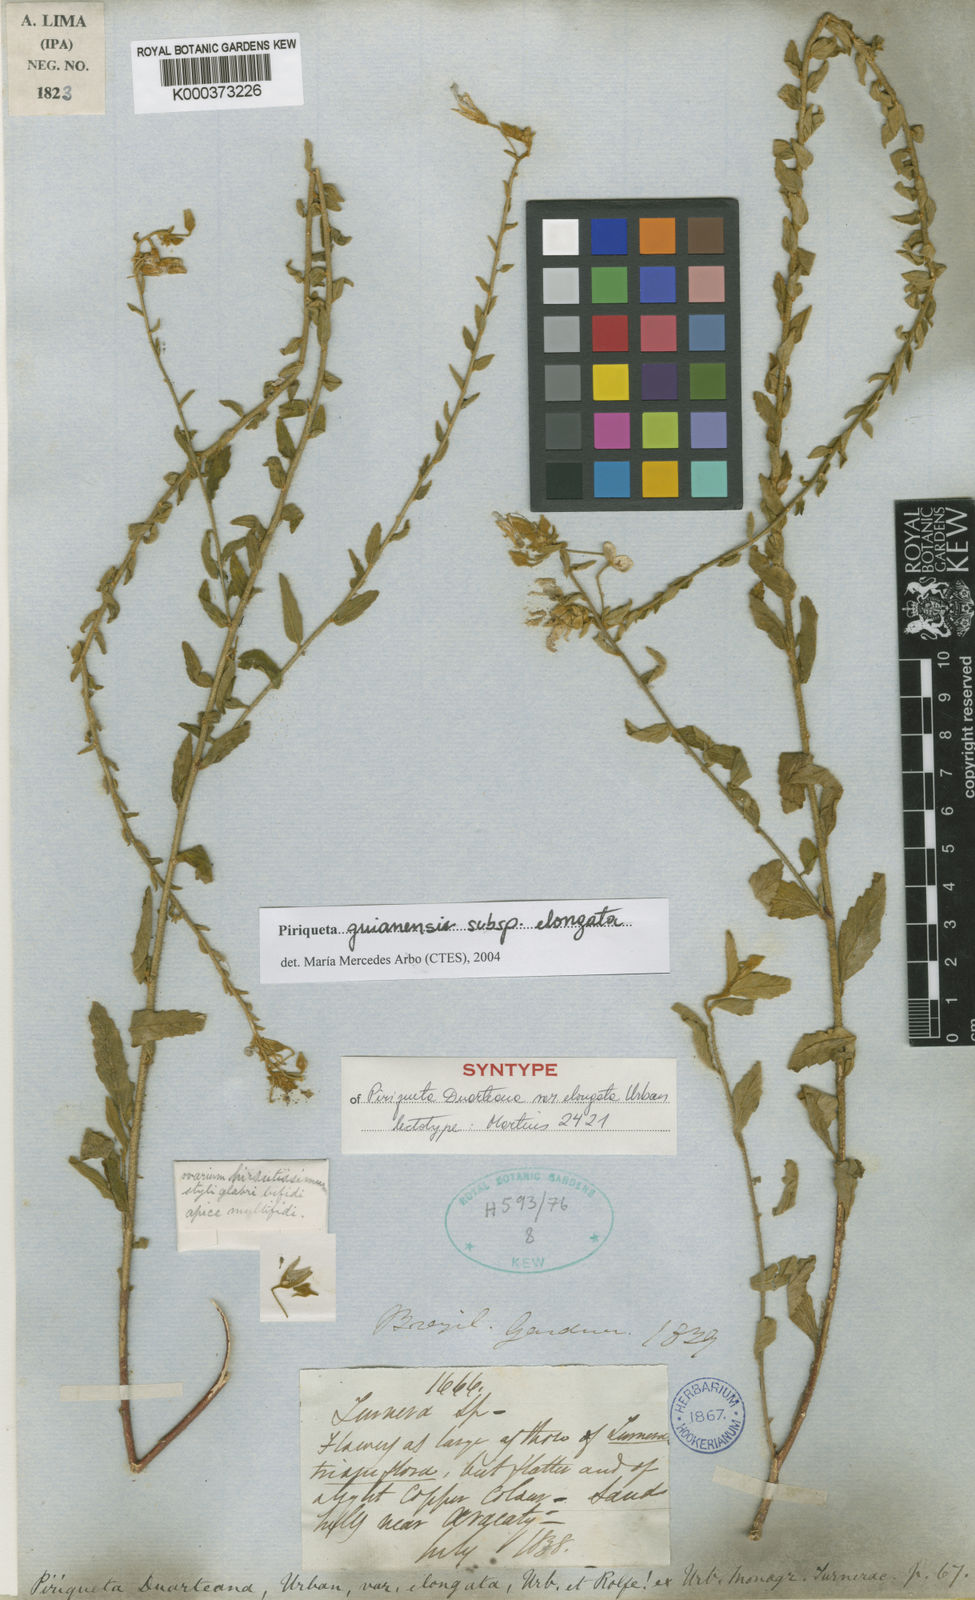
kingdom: Plantae
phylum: Tracheophyta
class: Magnoliopsida
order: Malpighiales
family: Turneraceae
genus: Piriqueta
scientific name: Piriqueta guianensis
